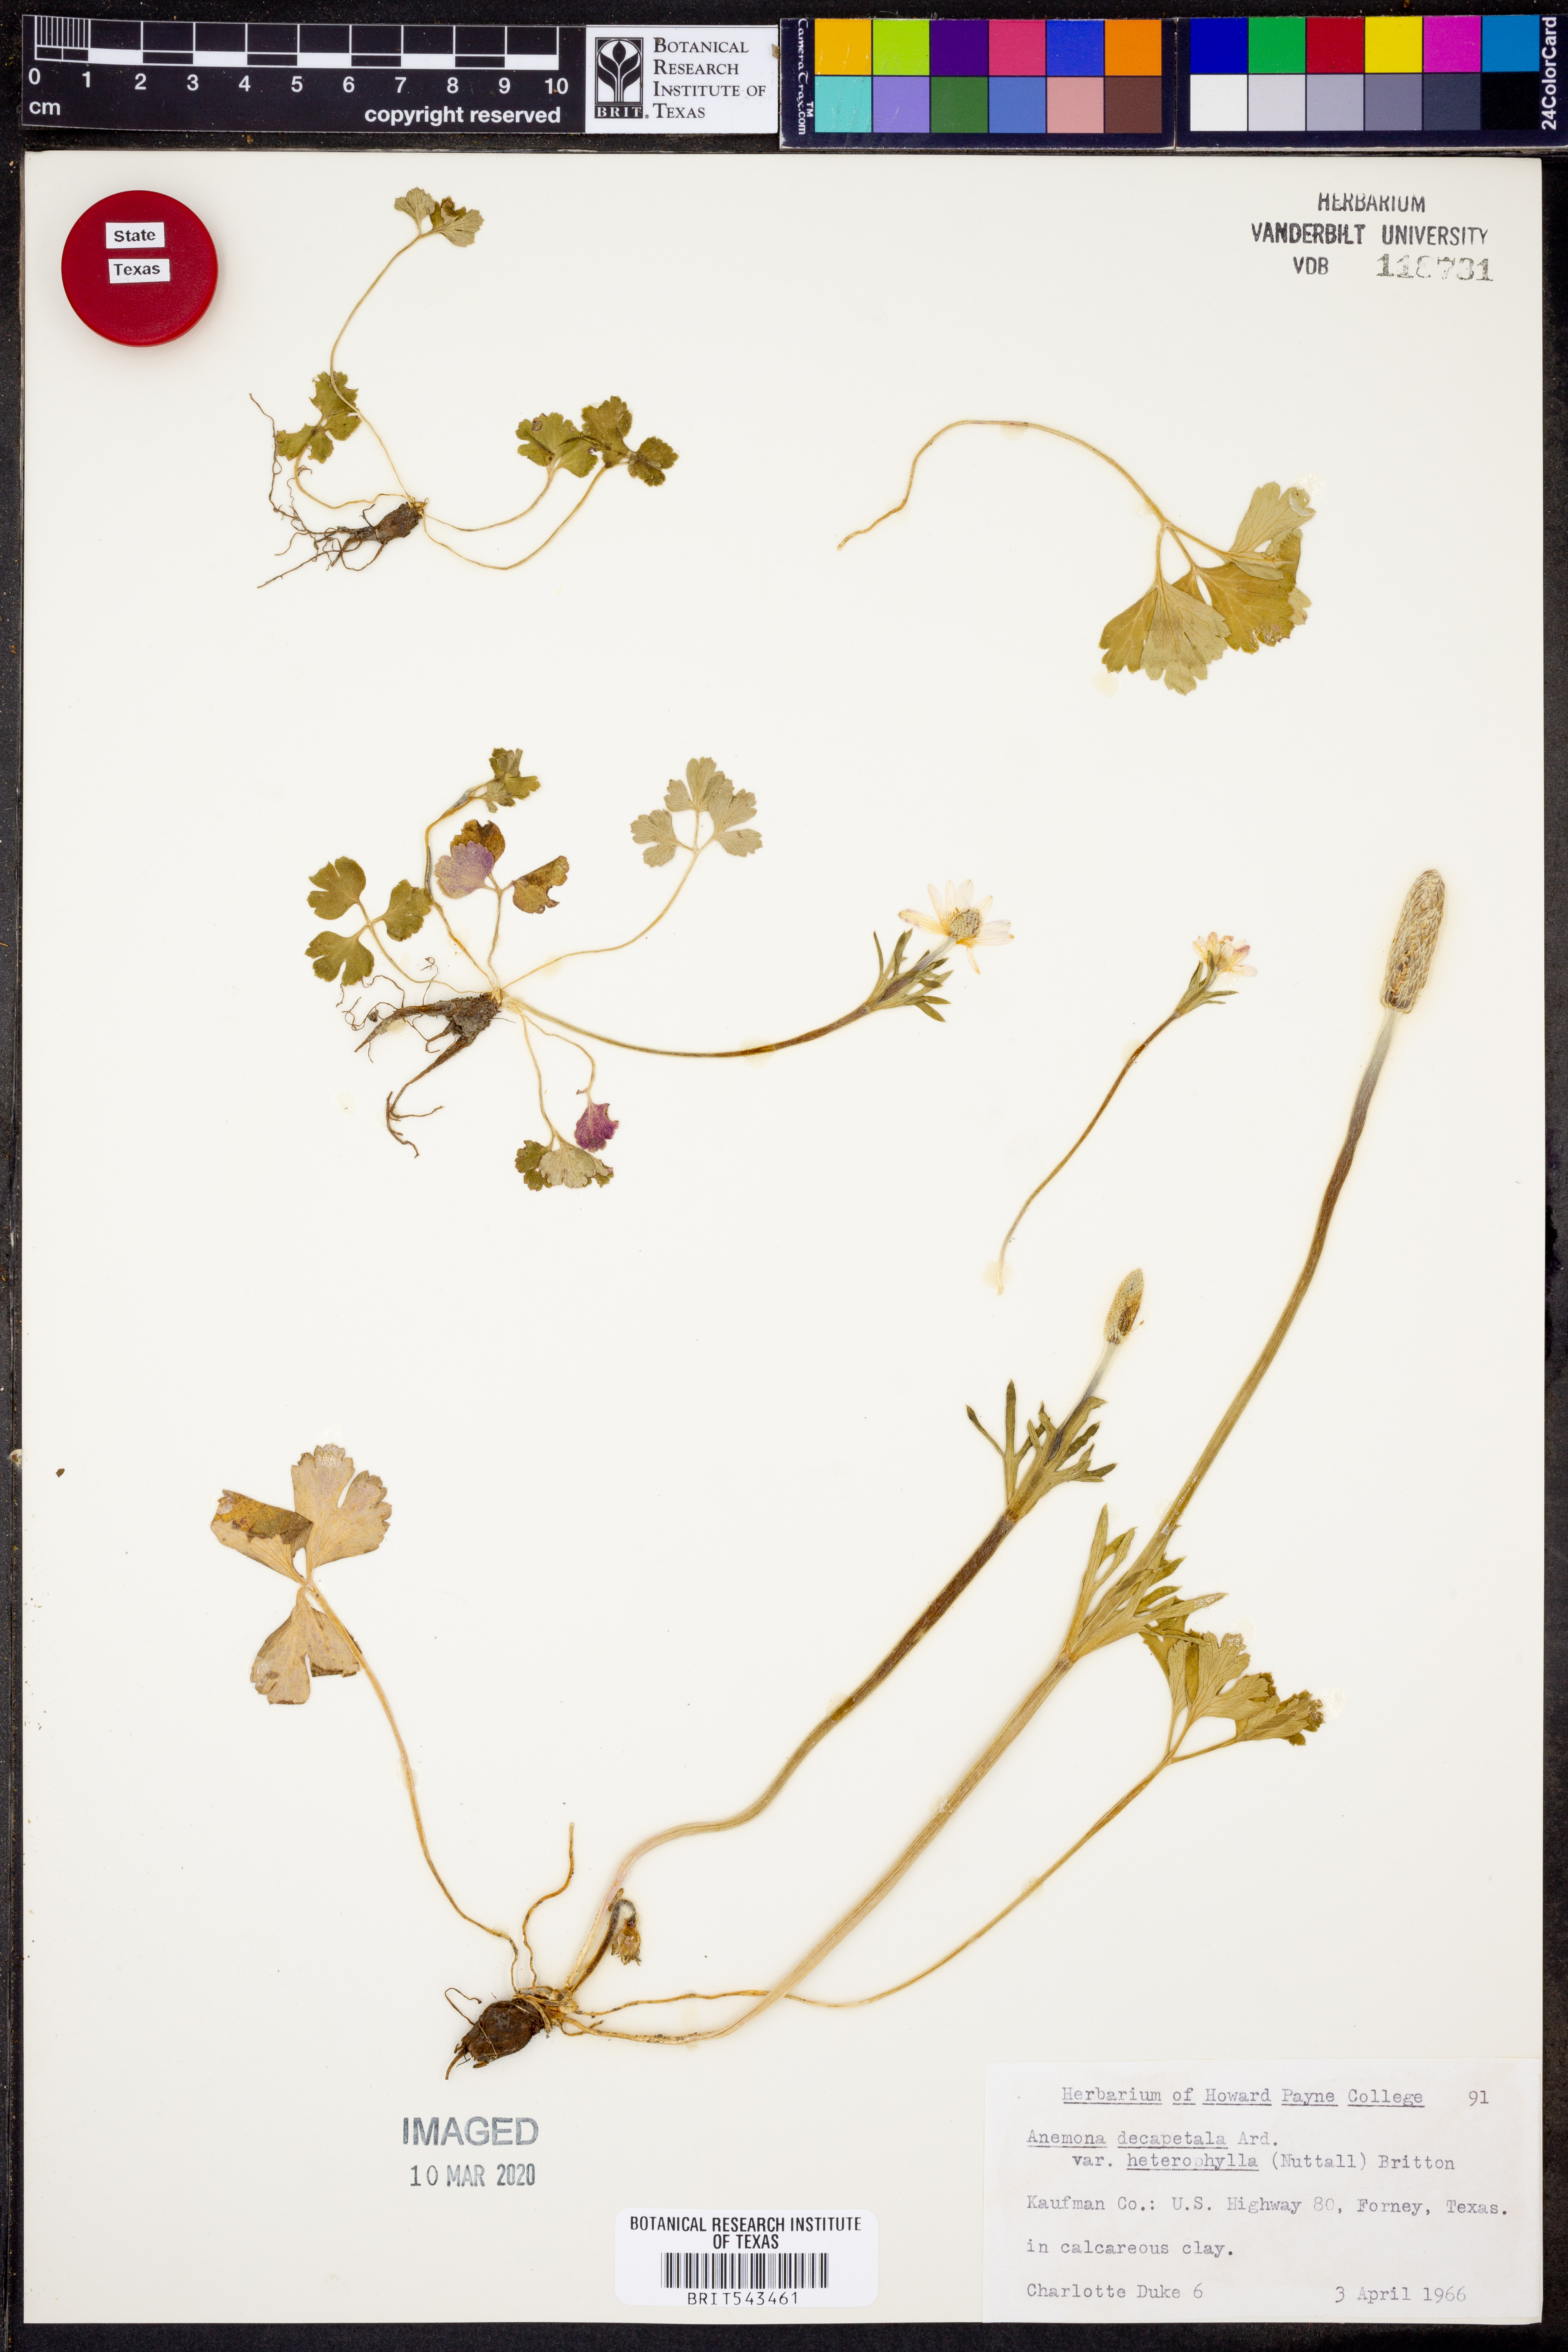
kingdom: Plantae
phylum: Tracheophyta
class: Magnoliopsida
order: Ranunculales
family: Ranunculaceae
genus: Anemone
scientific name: Anemone berlandieri
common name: Ten-petal anemone
